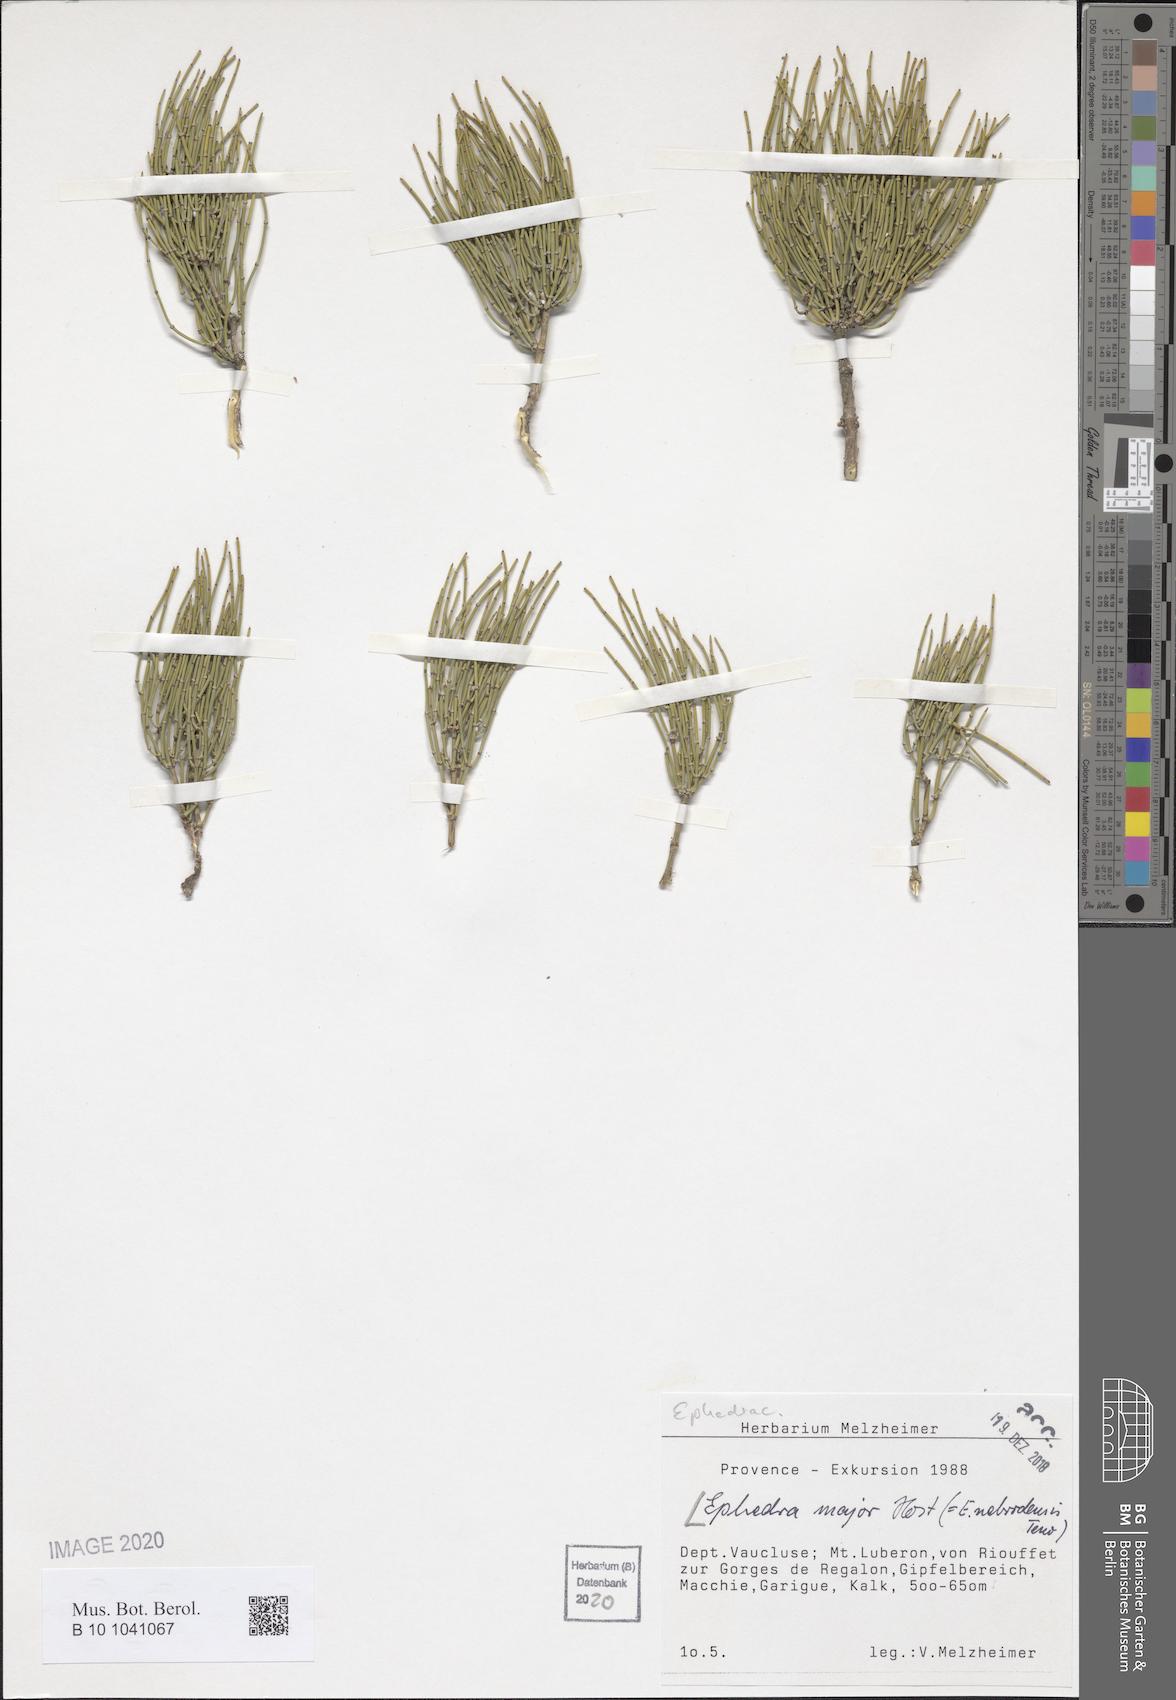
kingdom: Plantae
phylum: Tracheophyta
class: Gnetopsida
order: Ephedrales
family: Ephedraceae
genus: Ephedra
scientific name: Ephedra foeminea
